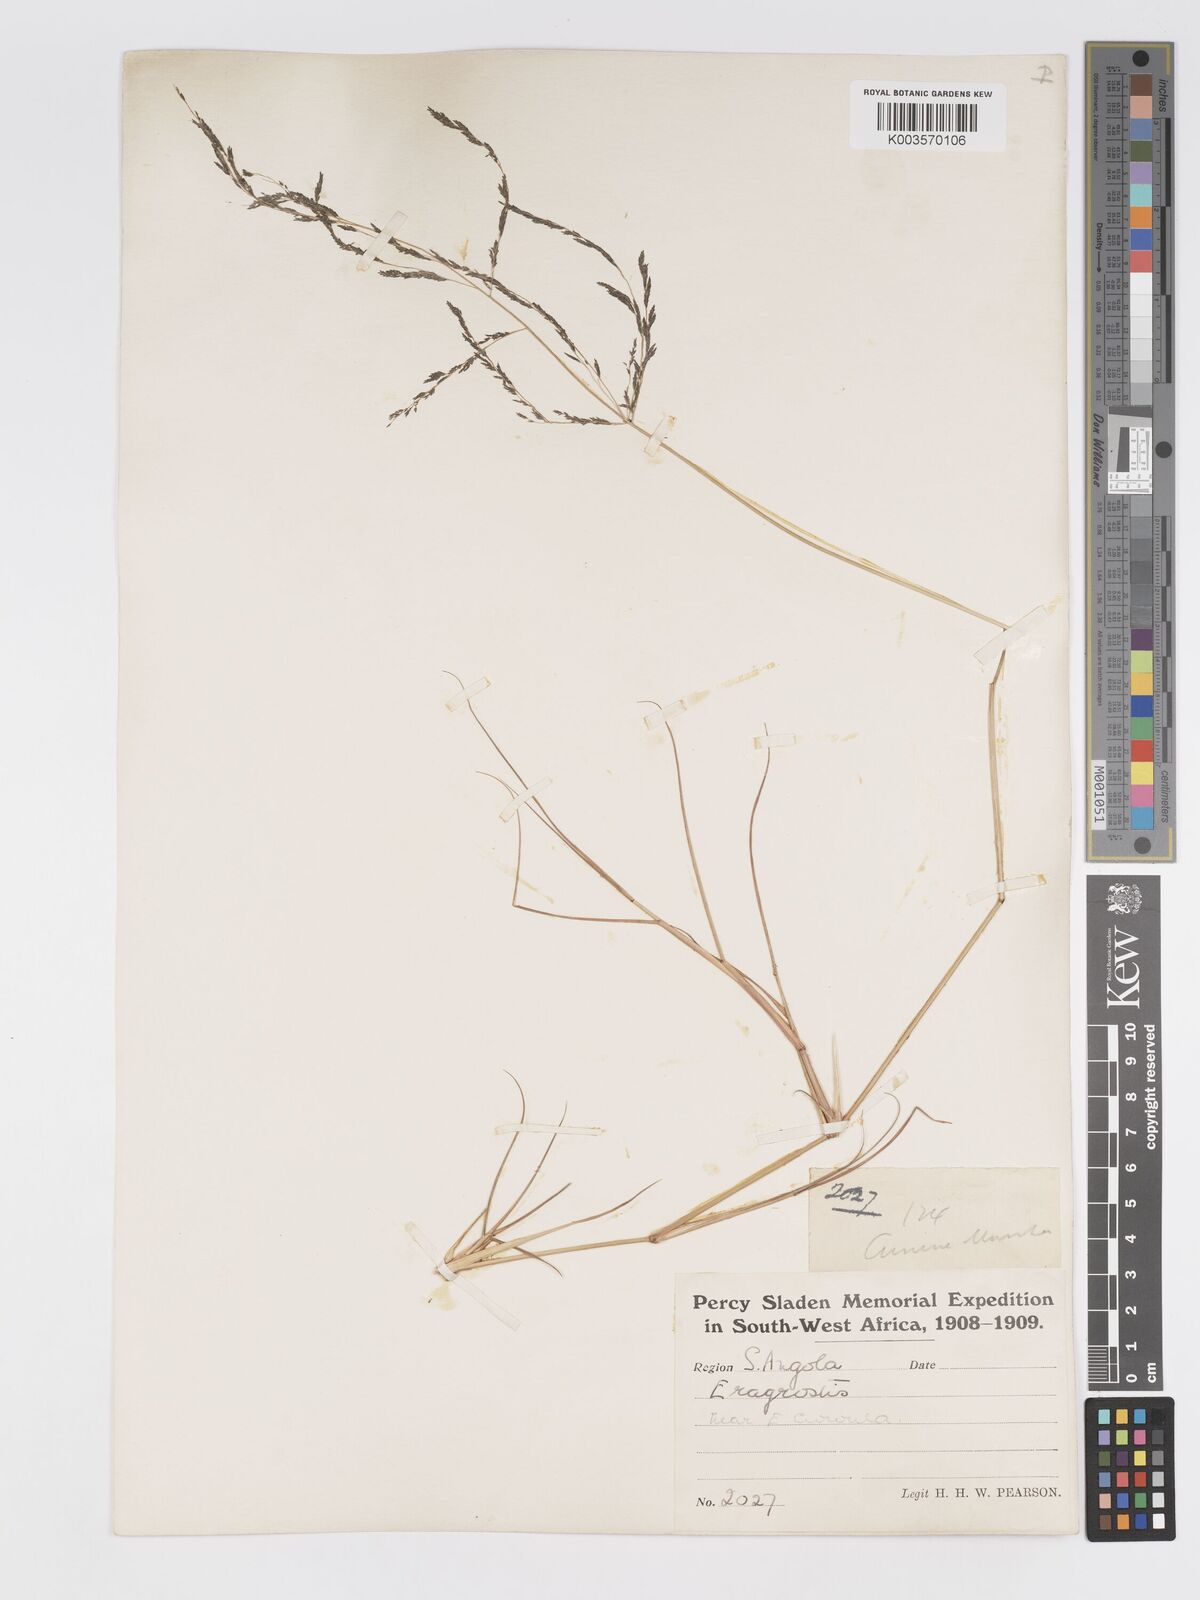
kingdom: Plantae
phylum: Tracheophyta
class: Liliopsida
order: Poales
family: Poaceae
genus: Eragrostis
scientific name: Eragrostis rotifer
